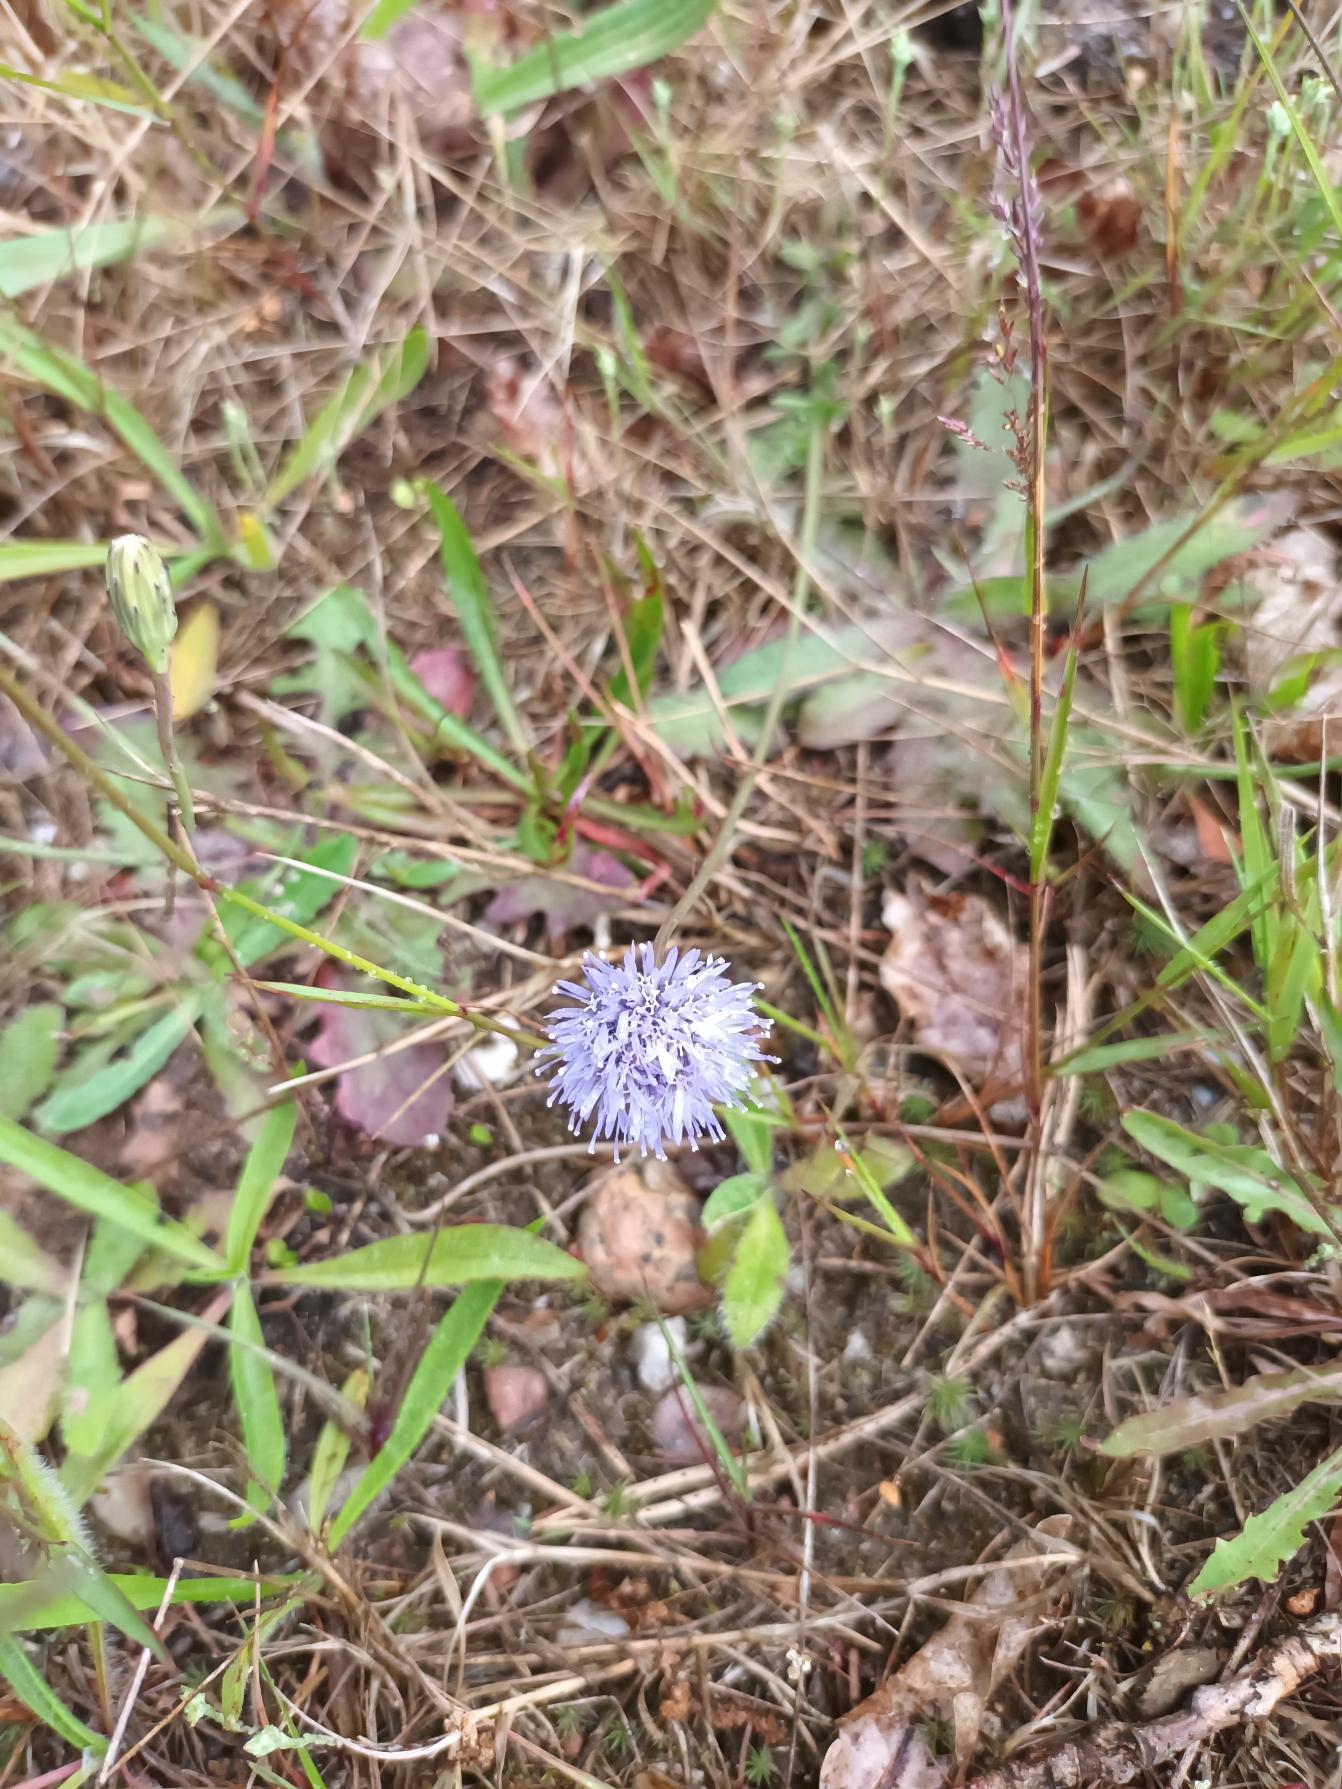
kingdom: Plantae
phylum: Tracheophyta
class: Magnoliopsida
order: Asterales
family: Campanulaceae
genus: Jasione
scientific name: Jasione montana
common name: Blåmunke
